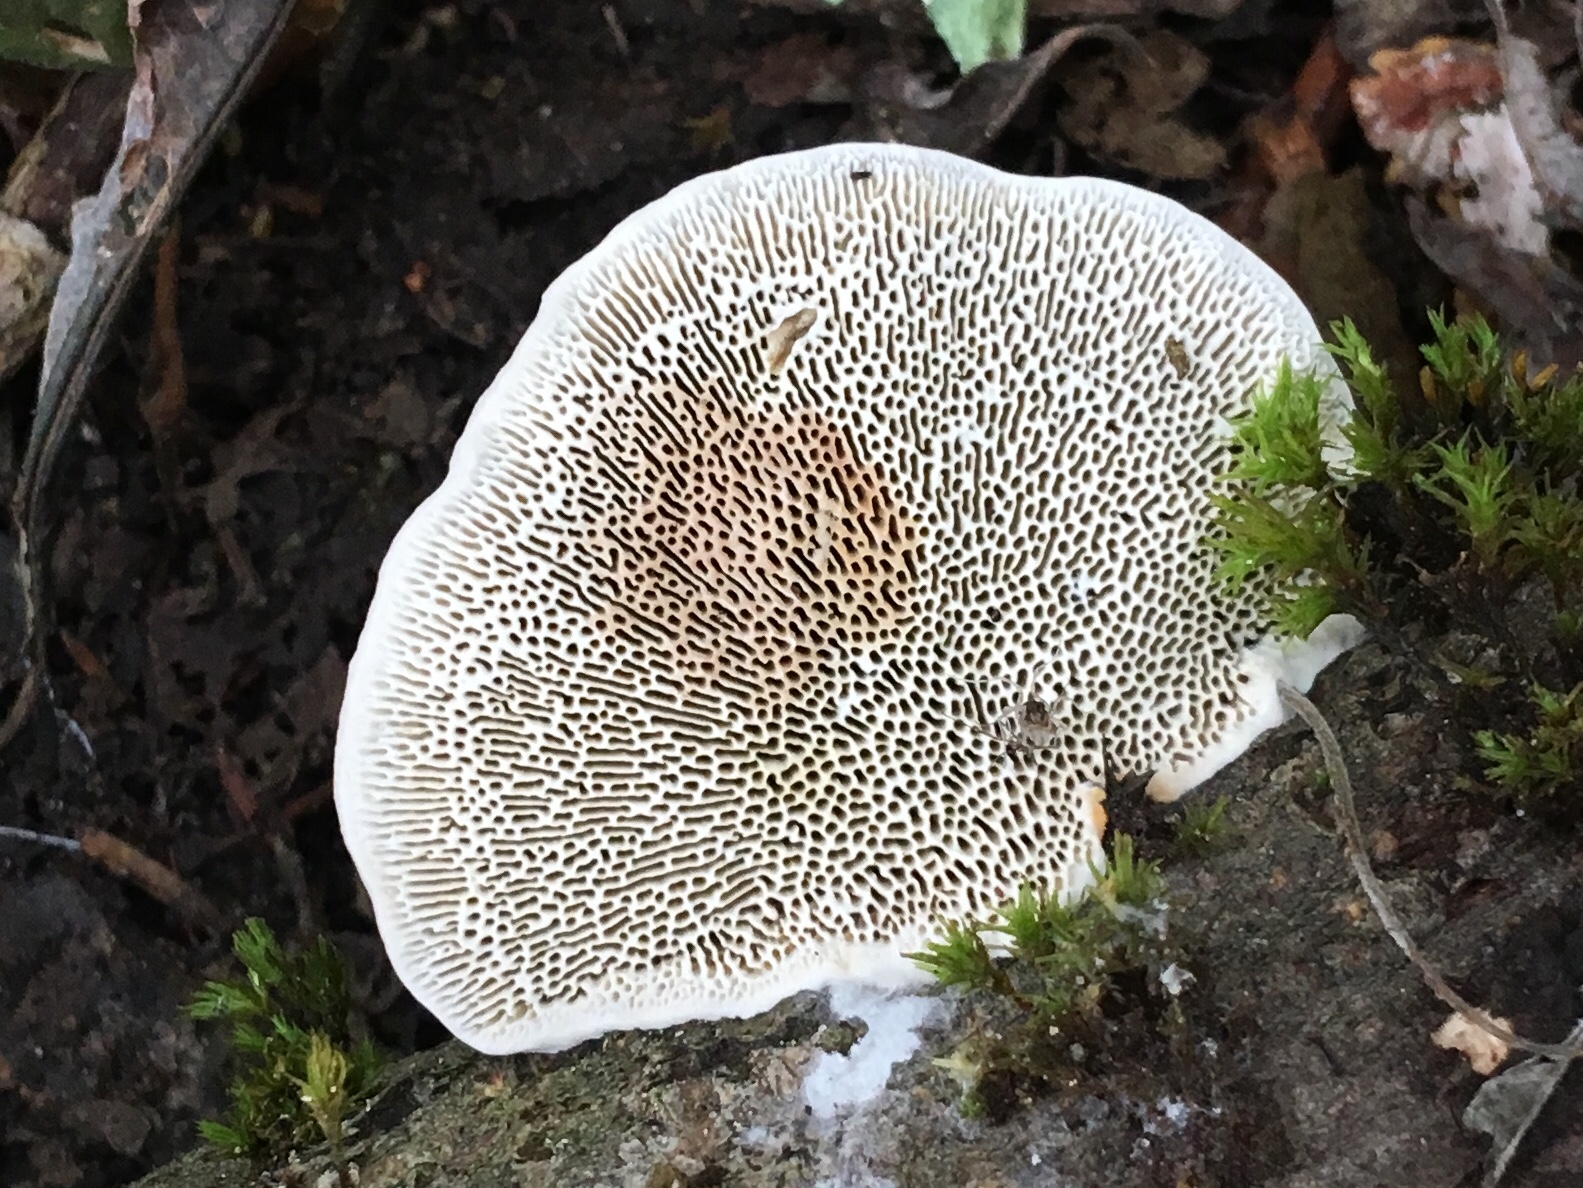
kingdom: Fungi
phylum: Basidiomycota
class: Agaricomycetes
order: Polyporales
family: Polyporaceae
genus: Daedaleopsis
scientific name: Daedaleopsis confragosa
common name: rødmende læderporesvamp
